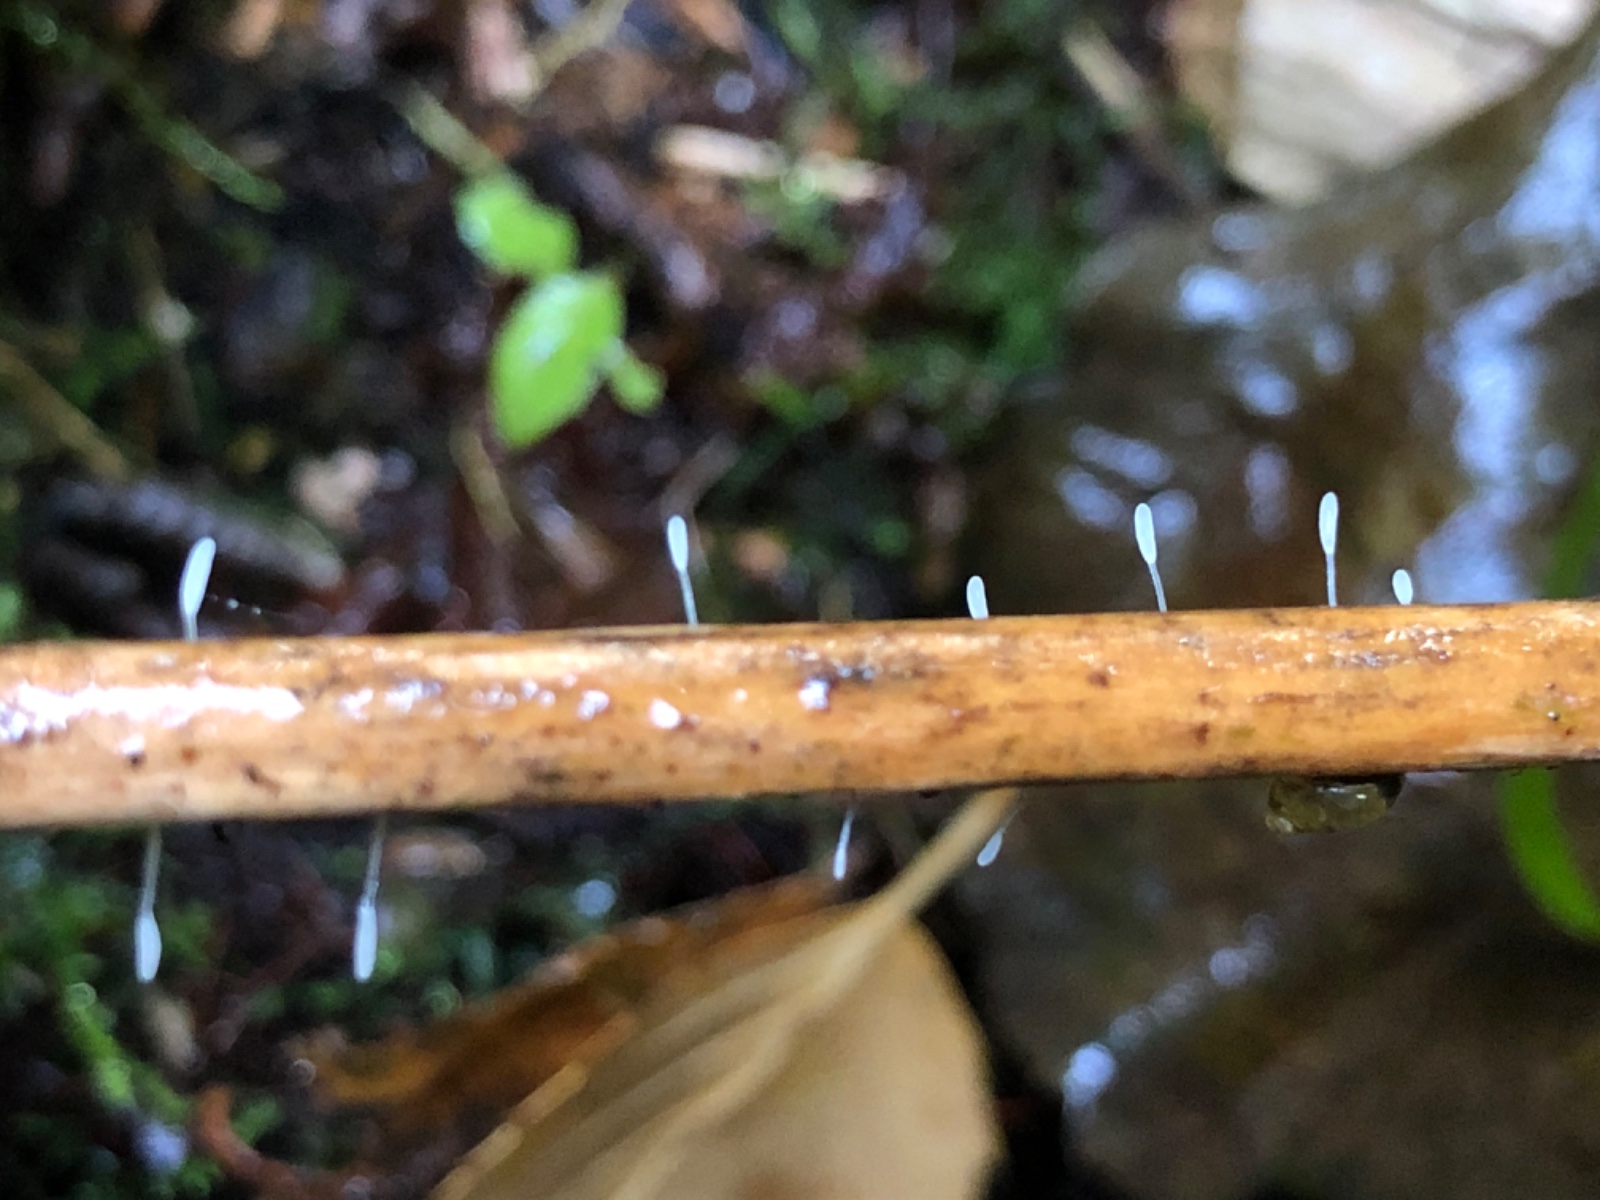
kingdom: Fungi
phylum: Basidiomycota
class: Agaricomycetes
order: Agaricales
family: Typhulaceae
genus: Typhula
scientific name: Typhula
